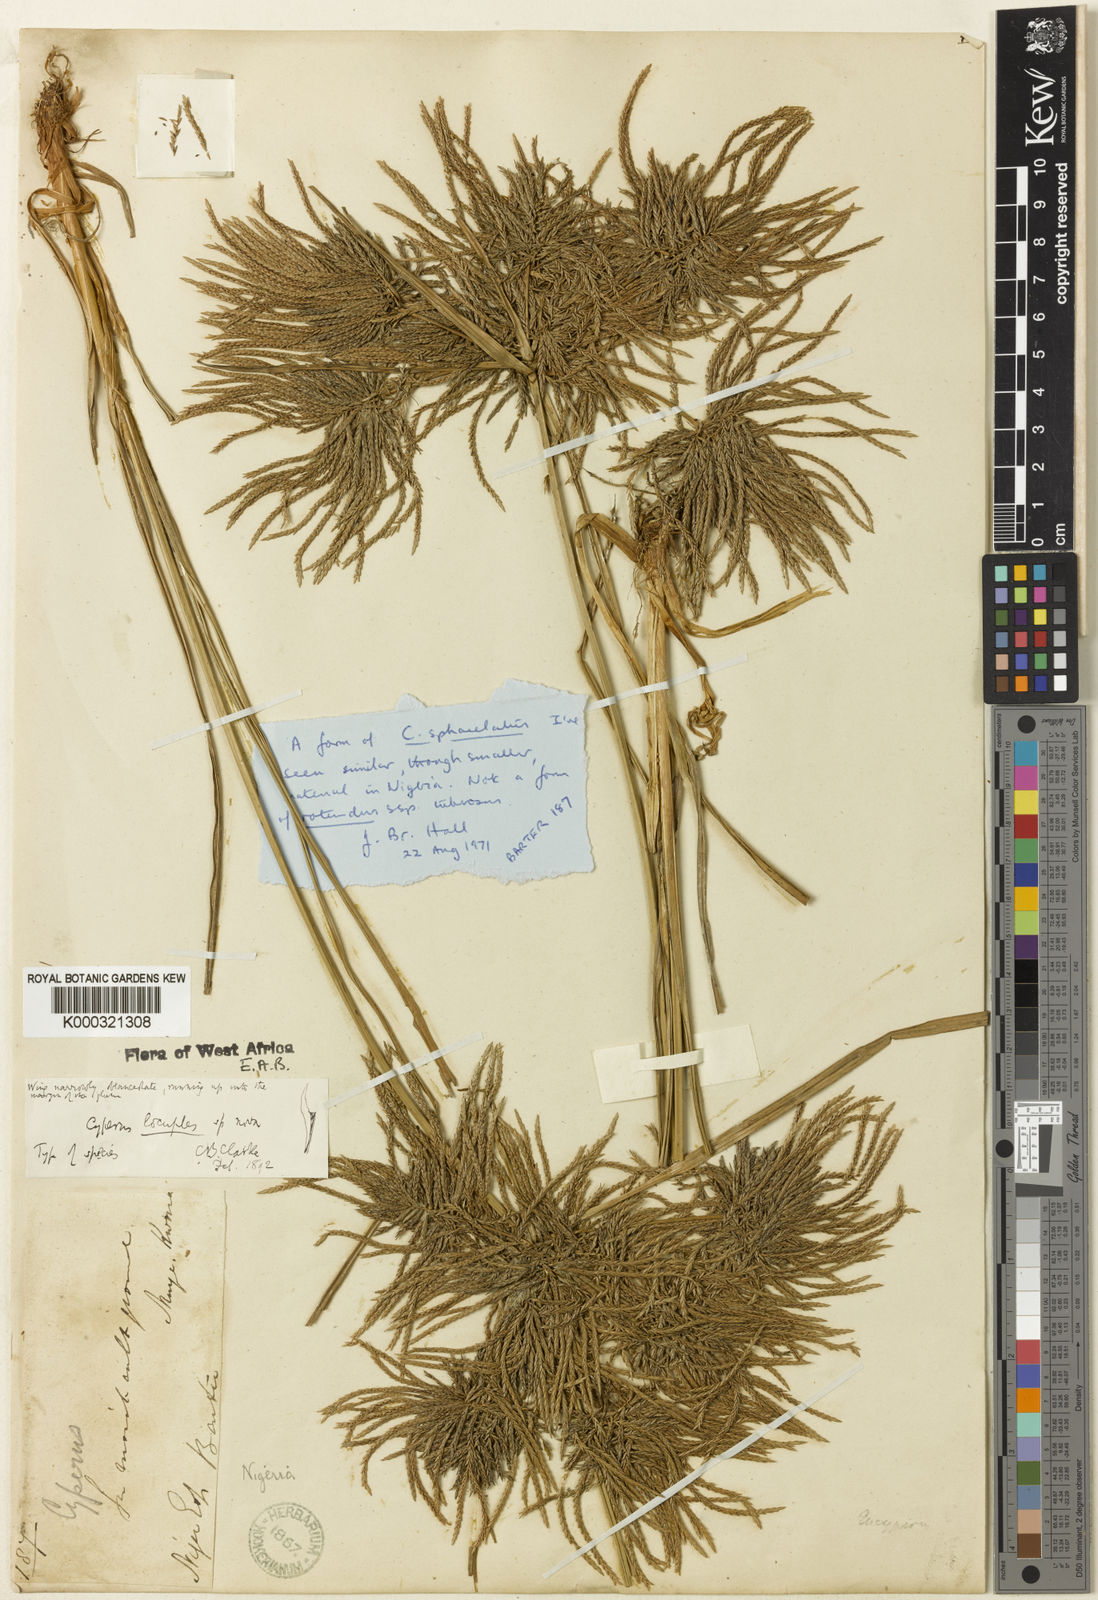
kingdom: Plantae
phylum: Tracheophyta
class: Liliopsida
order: Poales
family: Cyperaceae
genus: Cyperus
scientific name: Cyperus sphacelatus
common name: Roadside flatsedge
